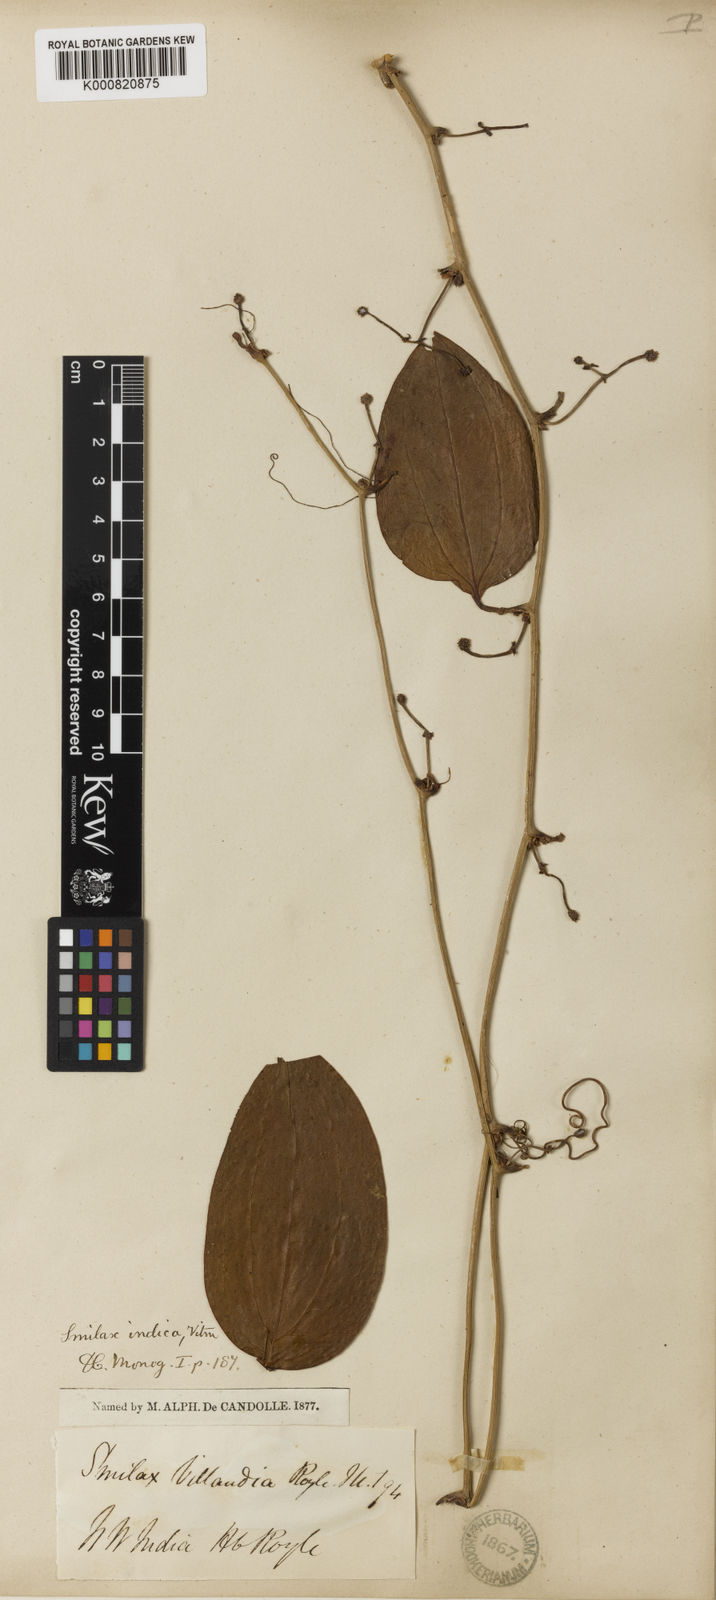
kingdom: Plantae
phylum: Tracheophyta
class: Liliopsida
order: Liliales
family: Smilacaceae
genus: Smilax
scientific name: Smilax
